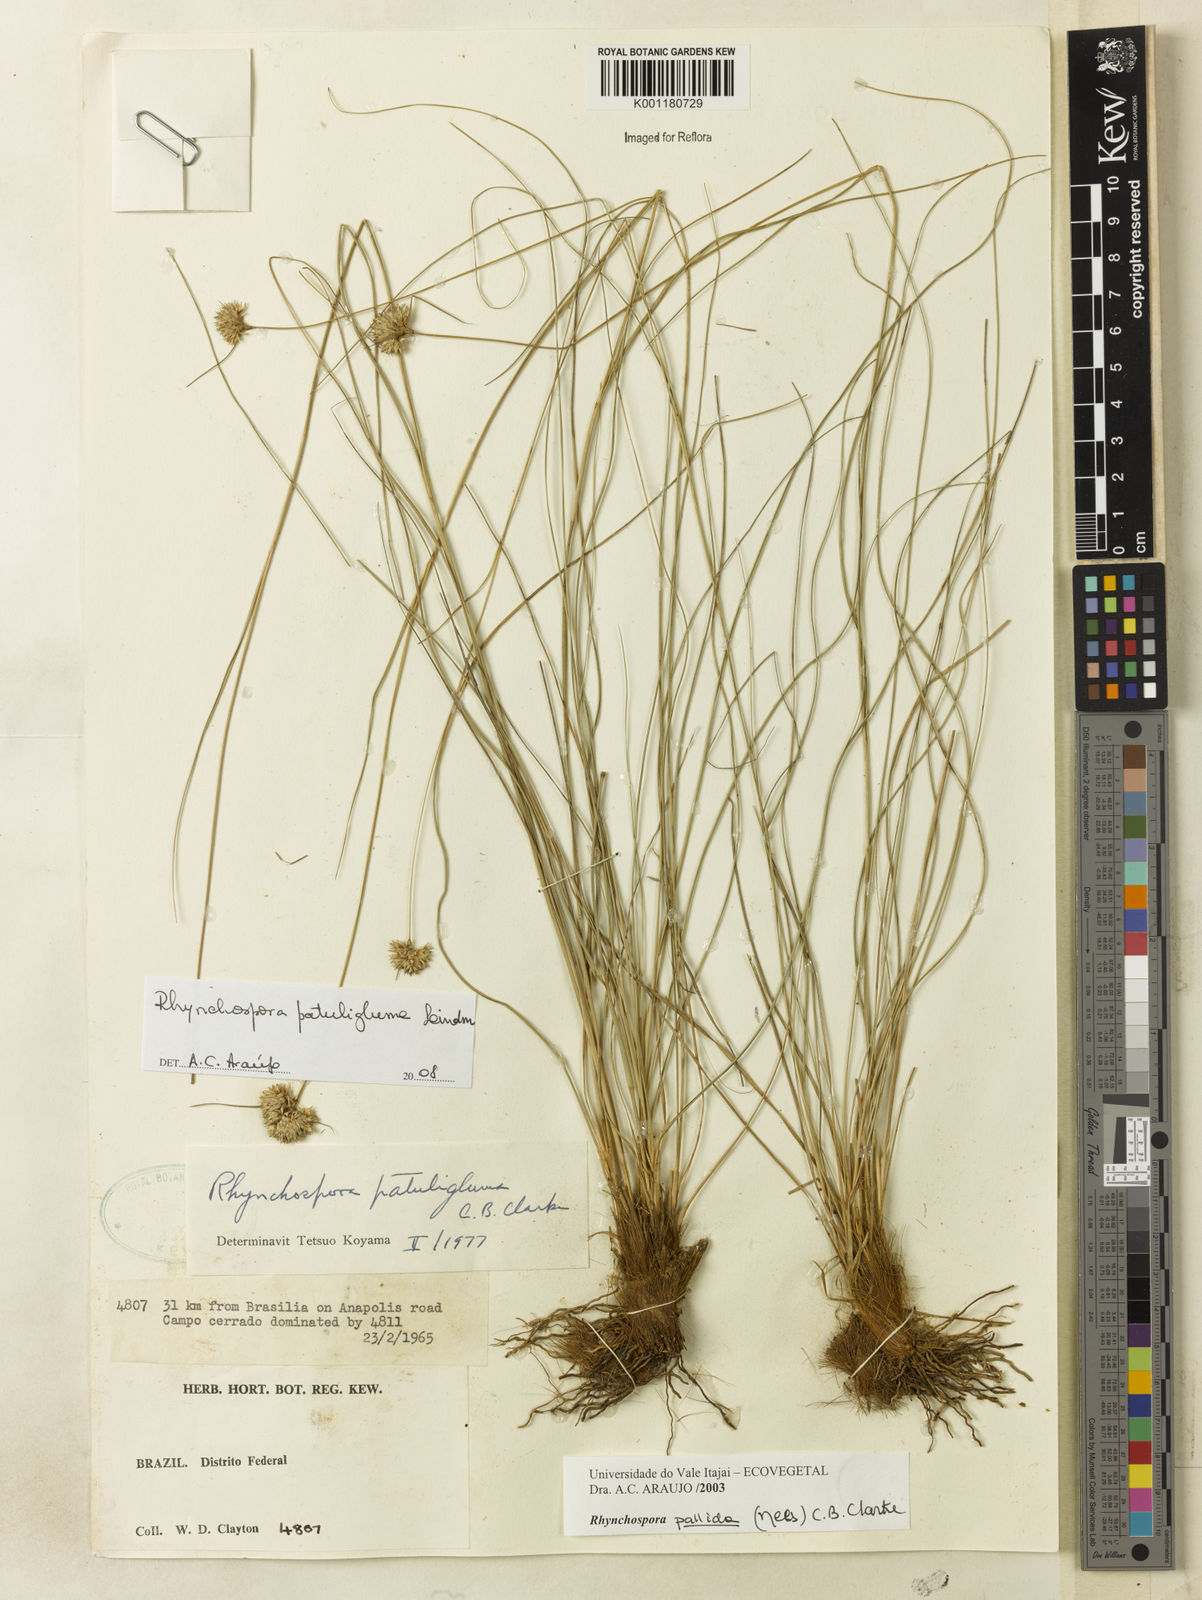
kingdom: Plantae
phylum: Tracheophyta
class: Liliopsida
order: Poales
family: Cyperaceae
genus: Rhynchospora
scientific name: Rhynchospora patuligluma
